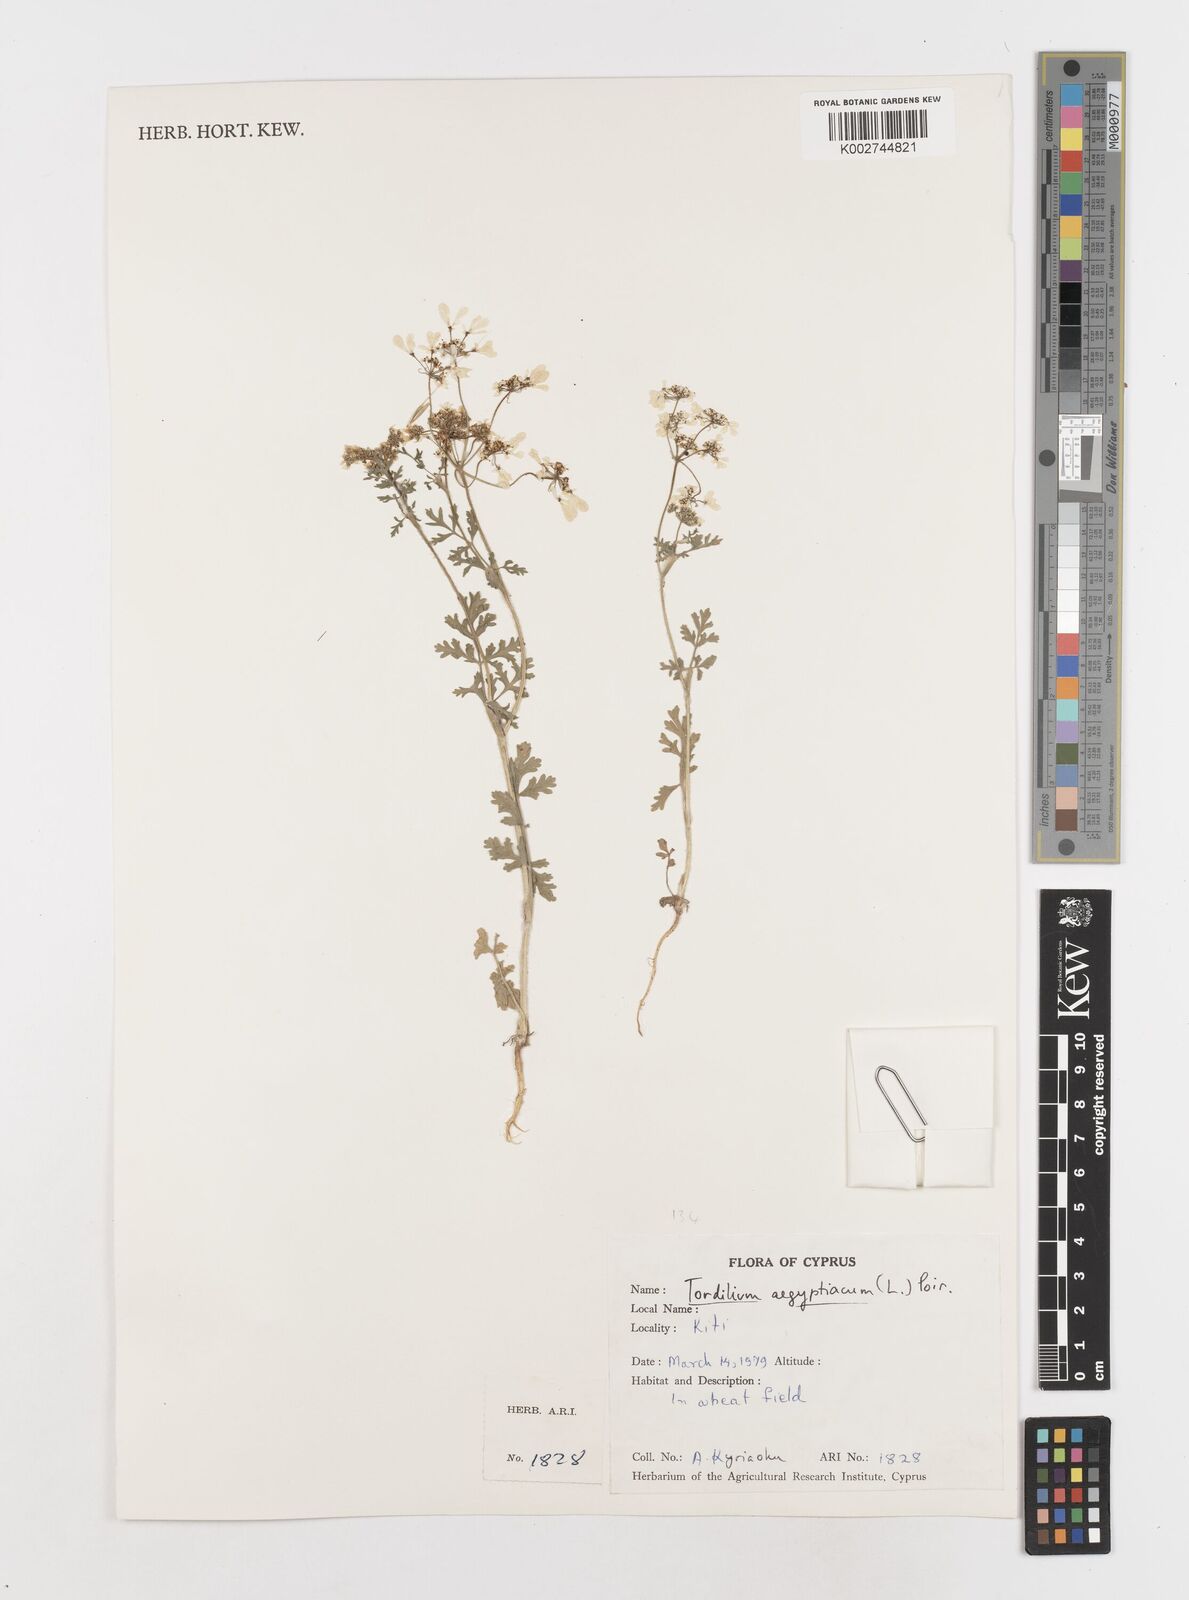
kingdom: Plantae
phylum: Tracheophyta
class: Magnoliopsida
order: Apiales
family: Apiaceae
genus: Tordylium
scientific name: Tordylium aegyptiacum
